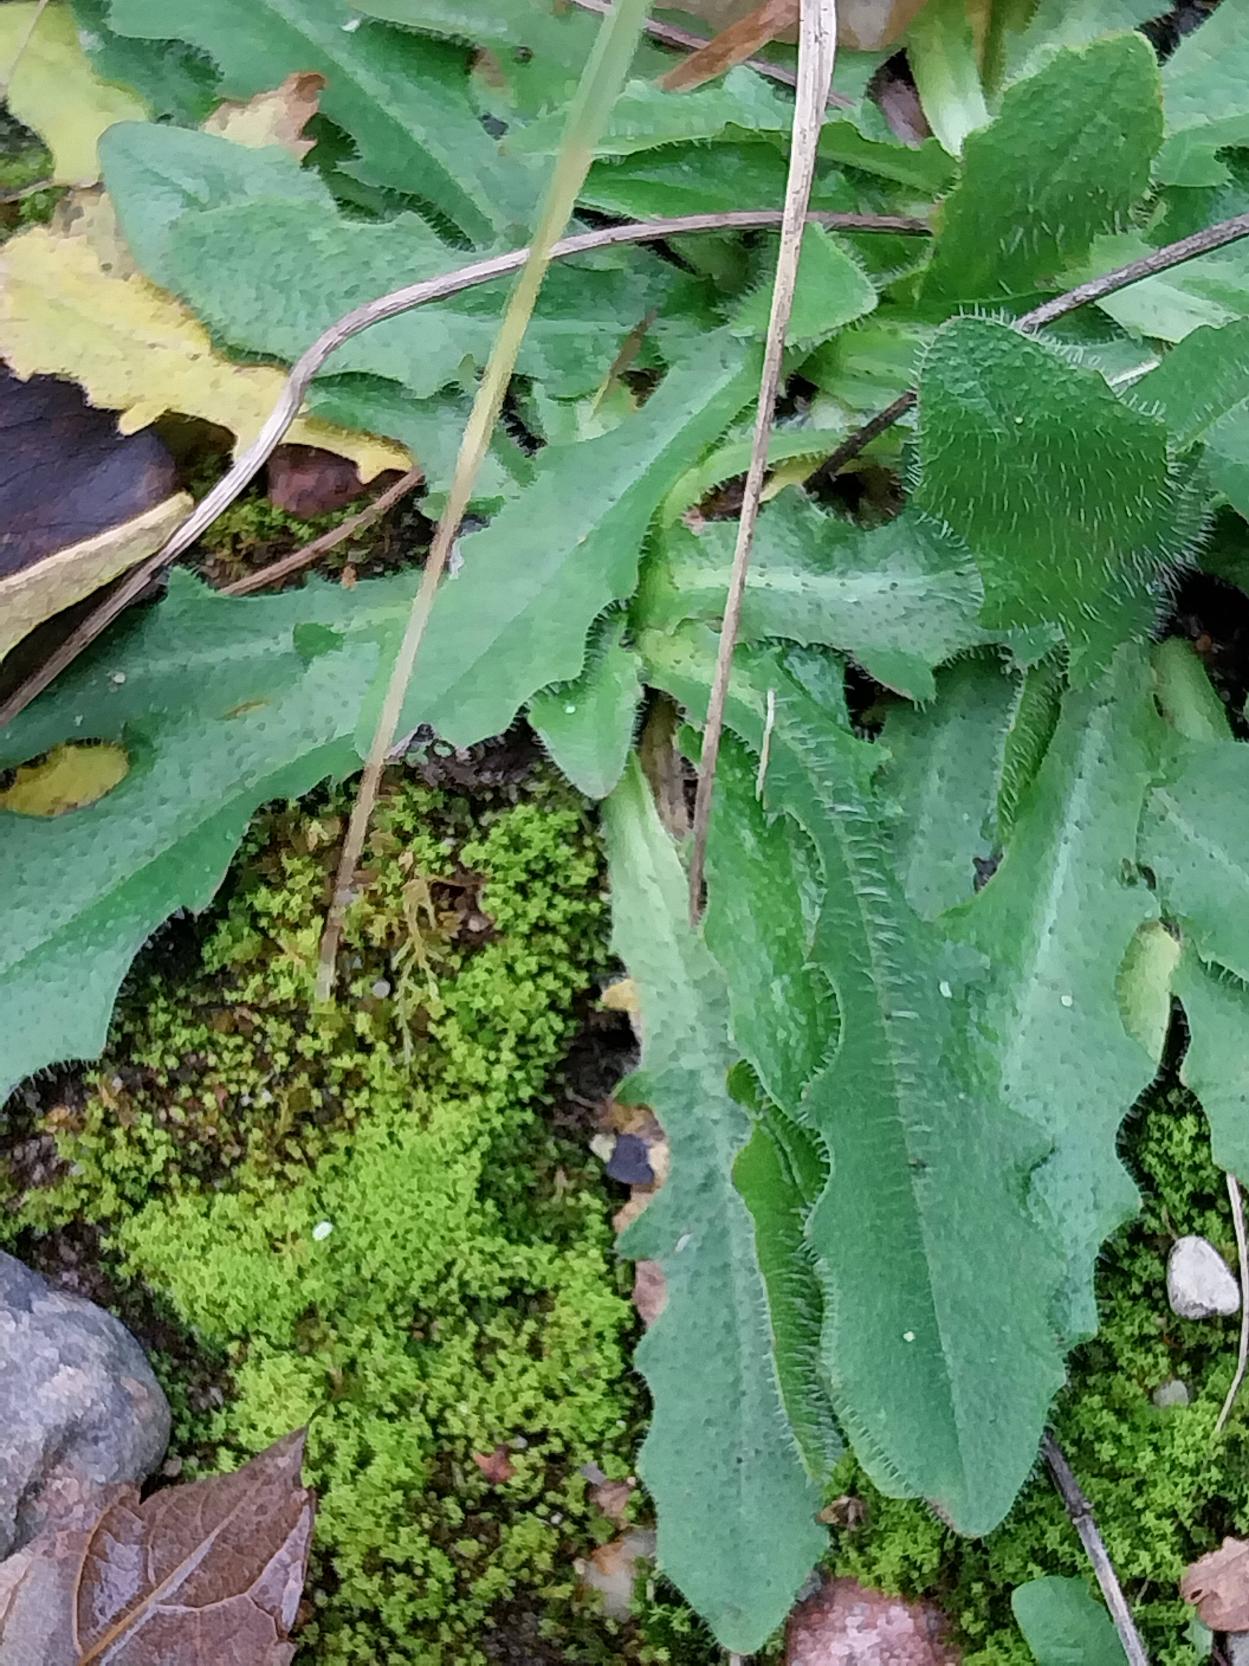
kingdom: Plantae
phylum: Tracheophyta
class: Magnoliopsida
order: Asterales
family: Asteraceae
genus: Hypochaeris
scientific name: Hypochaeris radicata
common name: Almindelig kongepen
